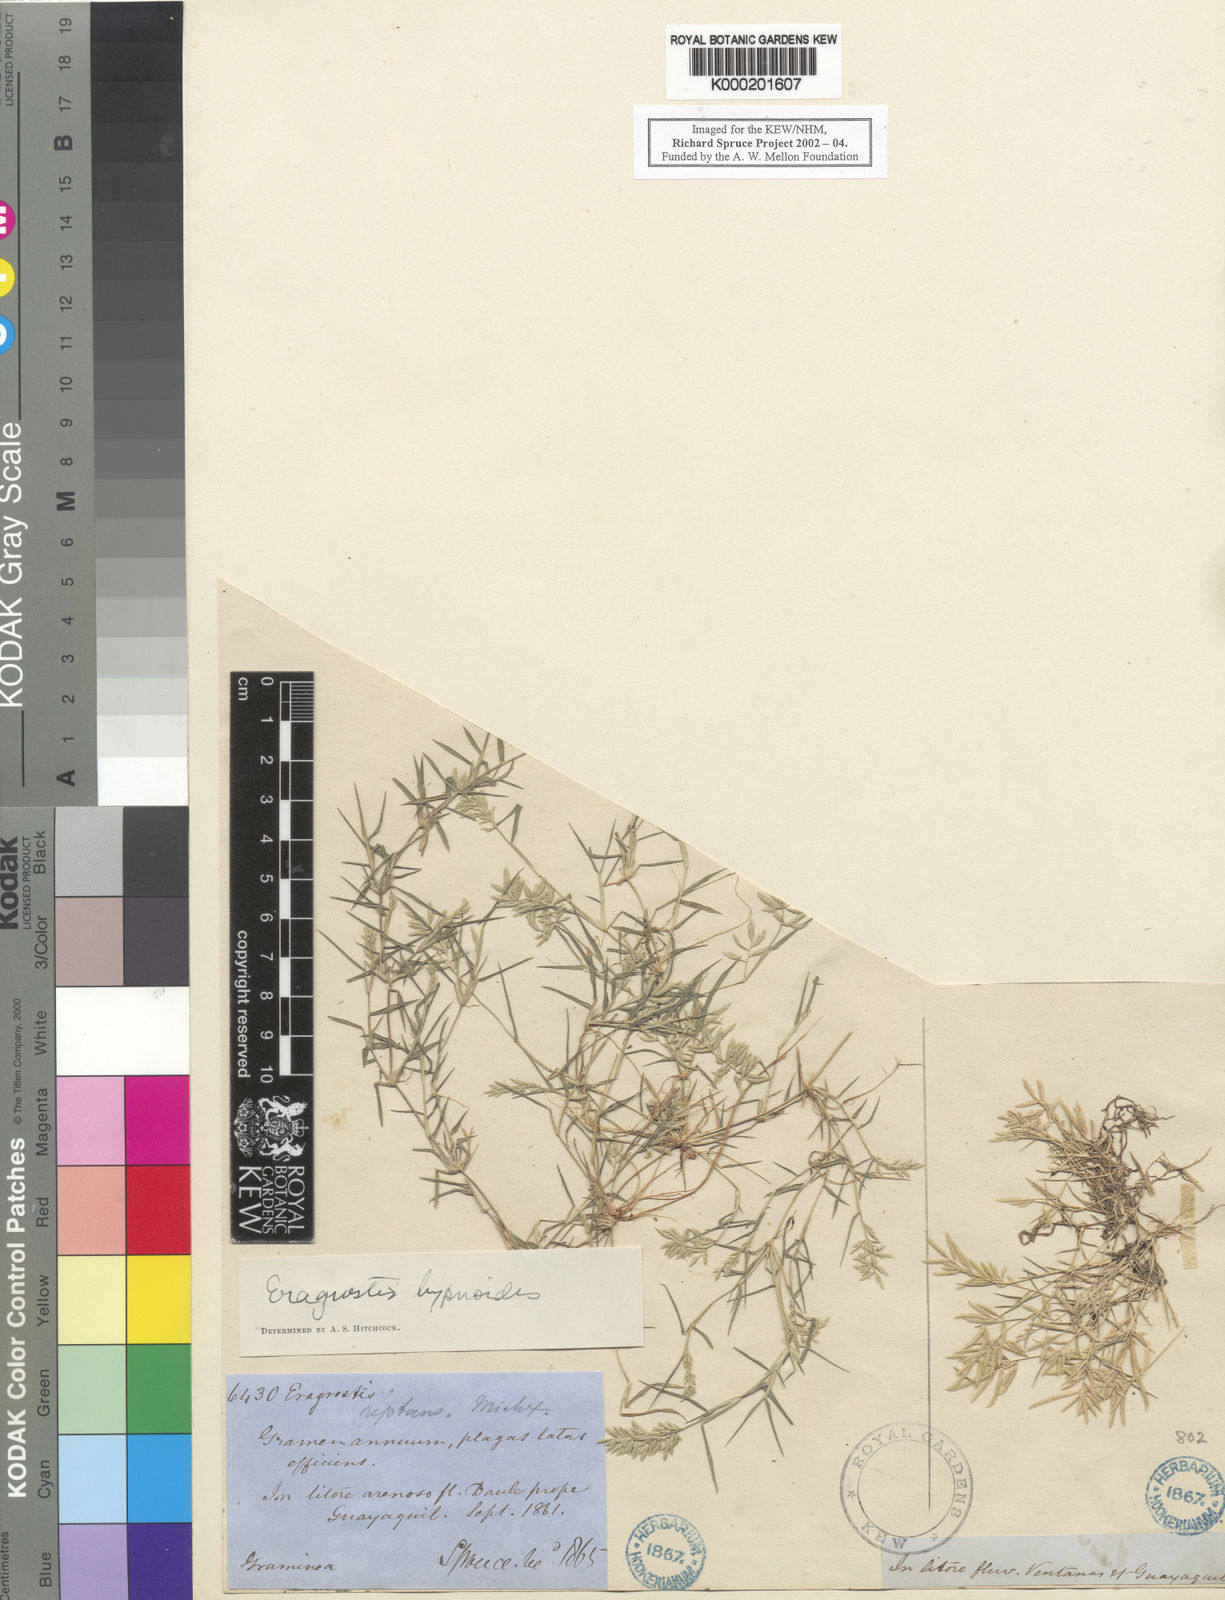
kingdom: Plantae
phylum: Tracheophyta
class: Liliopsida
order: Poales
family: Poaceae
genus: Eragrostis
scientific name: Eragrostis
